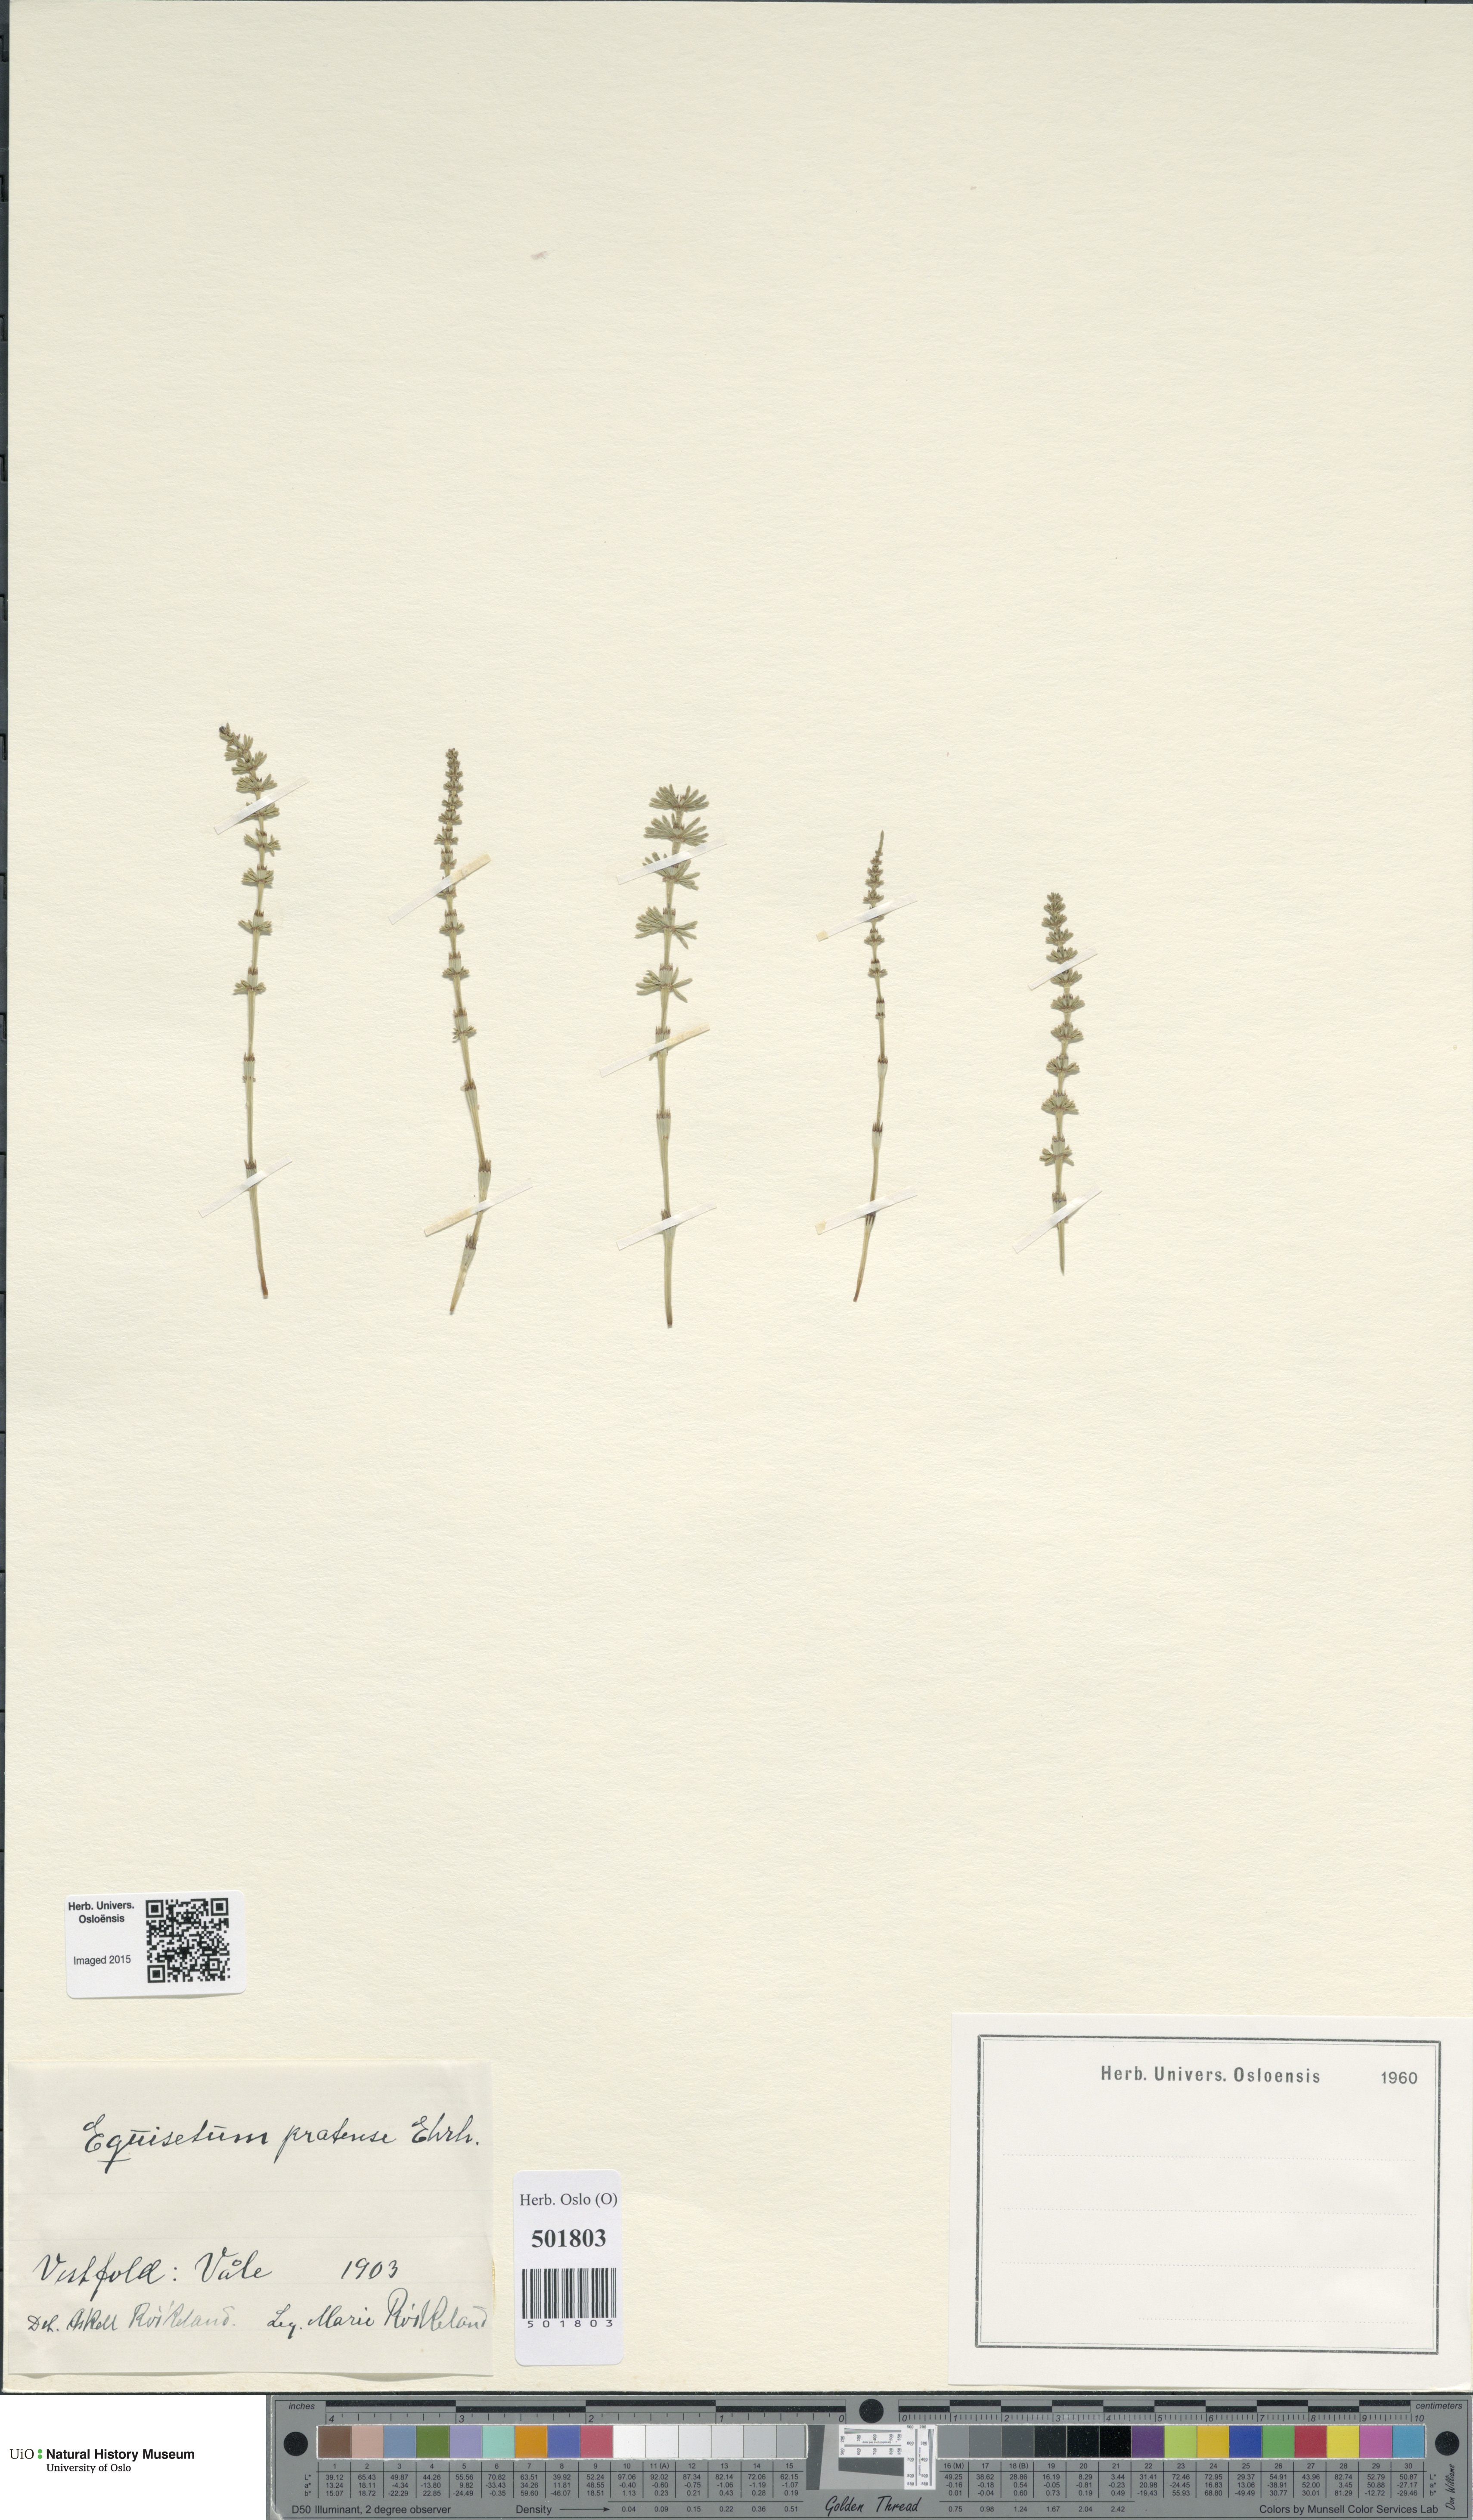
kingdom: Plantae
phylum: Tracheophyta
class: Polypodiopsida
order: Equisetales
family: Equisetaceae
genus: Equisetum
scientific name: Equisetum pratense
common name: Meadow horsetail
